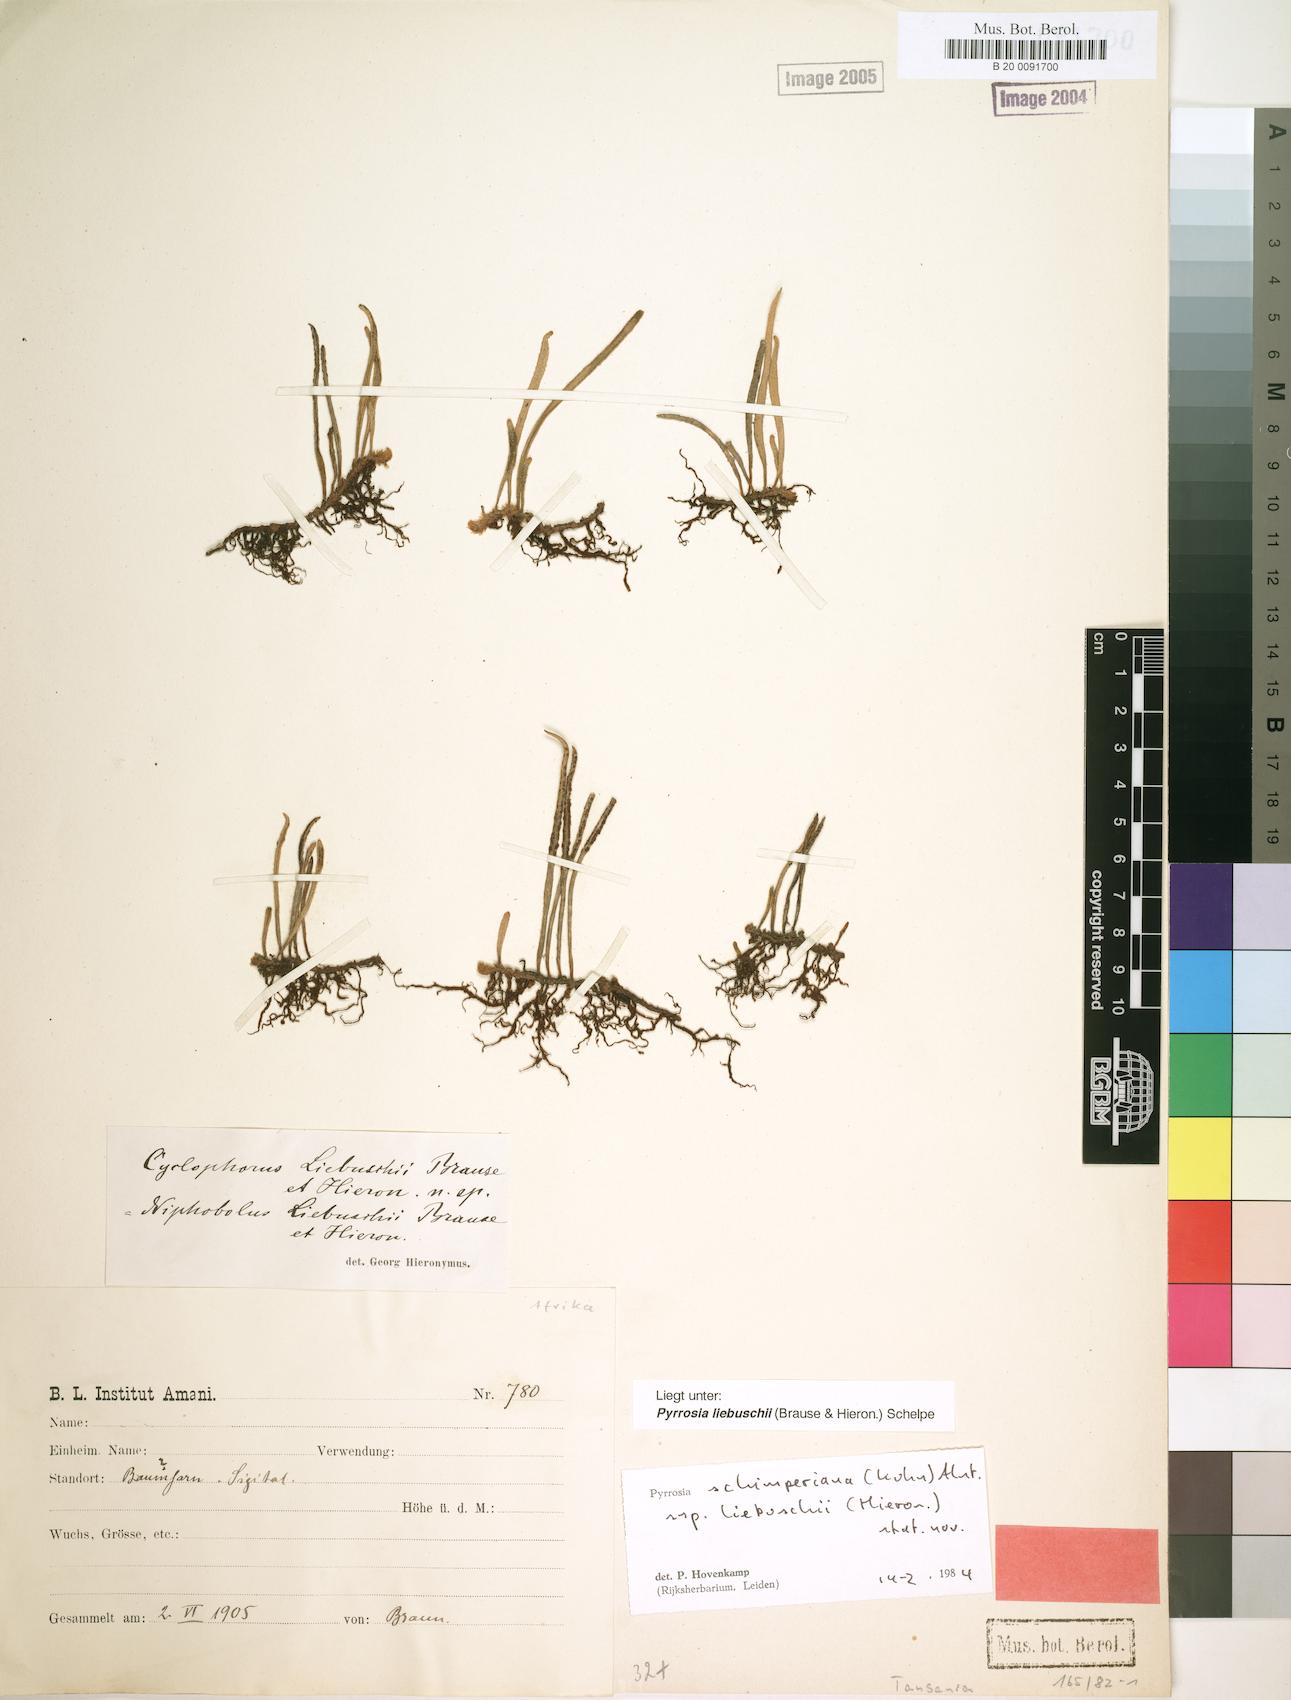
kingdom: Plantae
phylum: Tracheophyta
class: Polypodiopsida
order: Polypodiales
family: Polypodiaceae
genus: Hovenkampia
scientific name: Hovenkampia liebuschii
